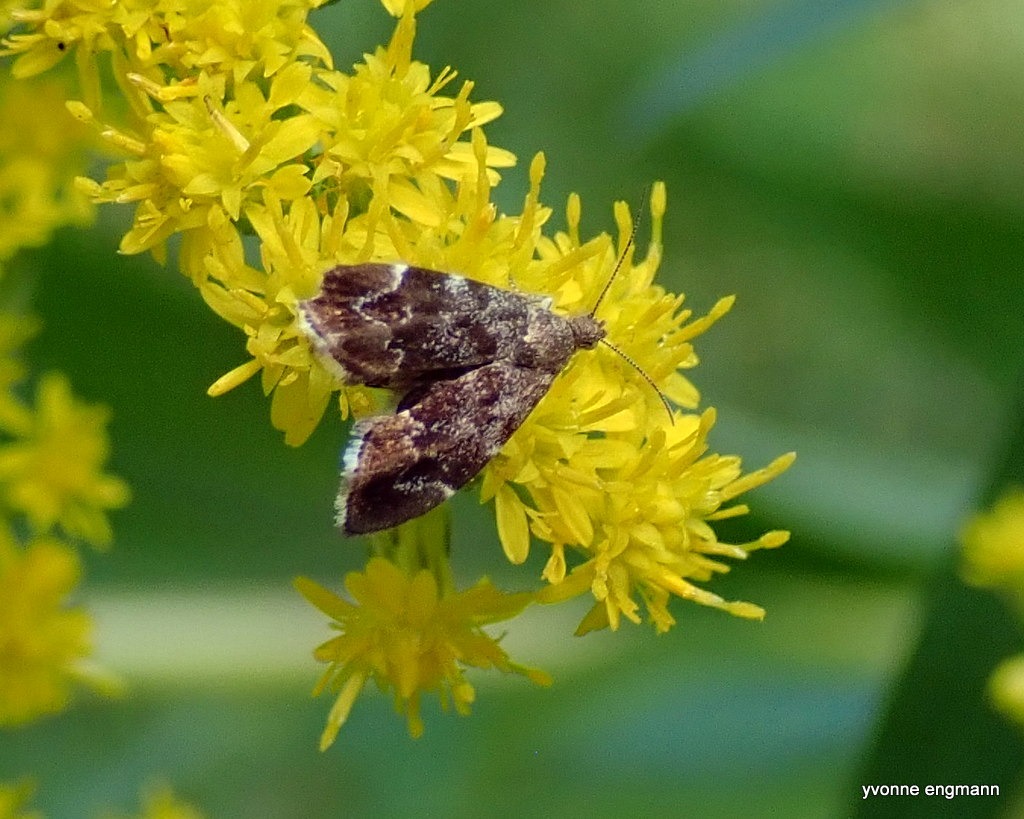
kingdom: Animalia
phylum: Arthropoda
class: Insecta
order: Lepidoptera
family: Choreutidae
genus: Anthophila
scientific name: Anthophila fabriciana
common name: Bredvinget nældevikler
